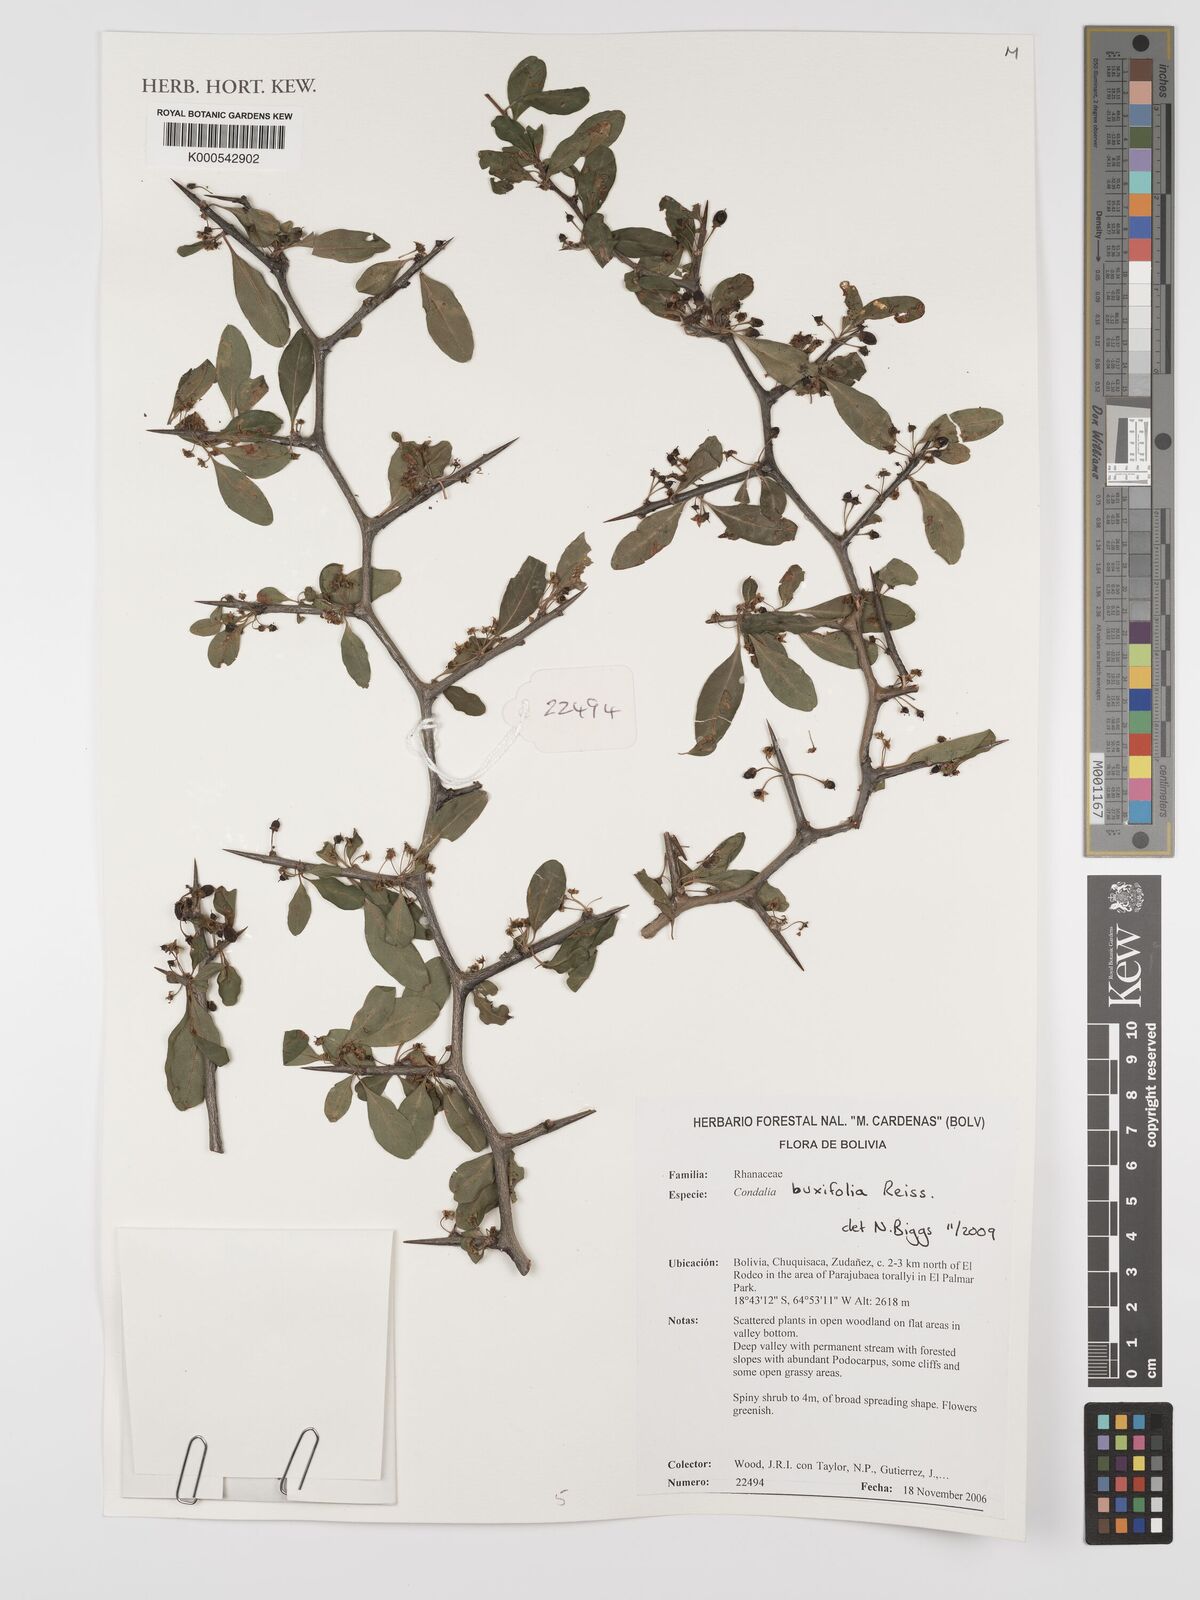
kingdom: Plantae
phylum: Tracheophyta
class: Magnoliopsida
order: Rosales
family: Rhamnaceae
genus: Condalia
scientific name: Condalia buxifolia
